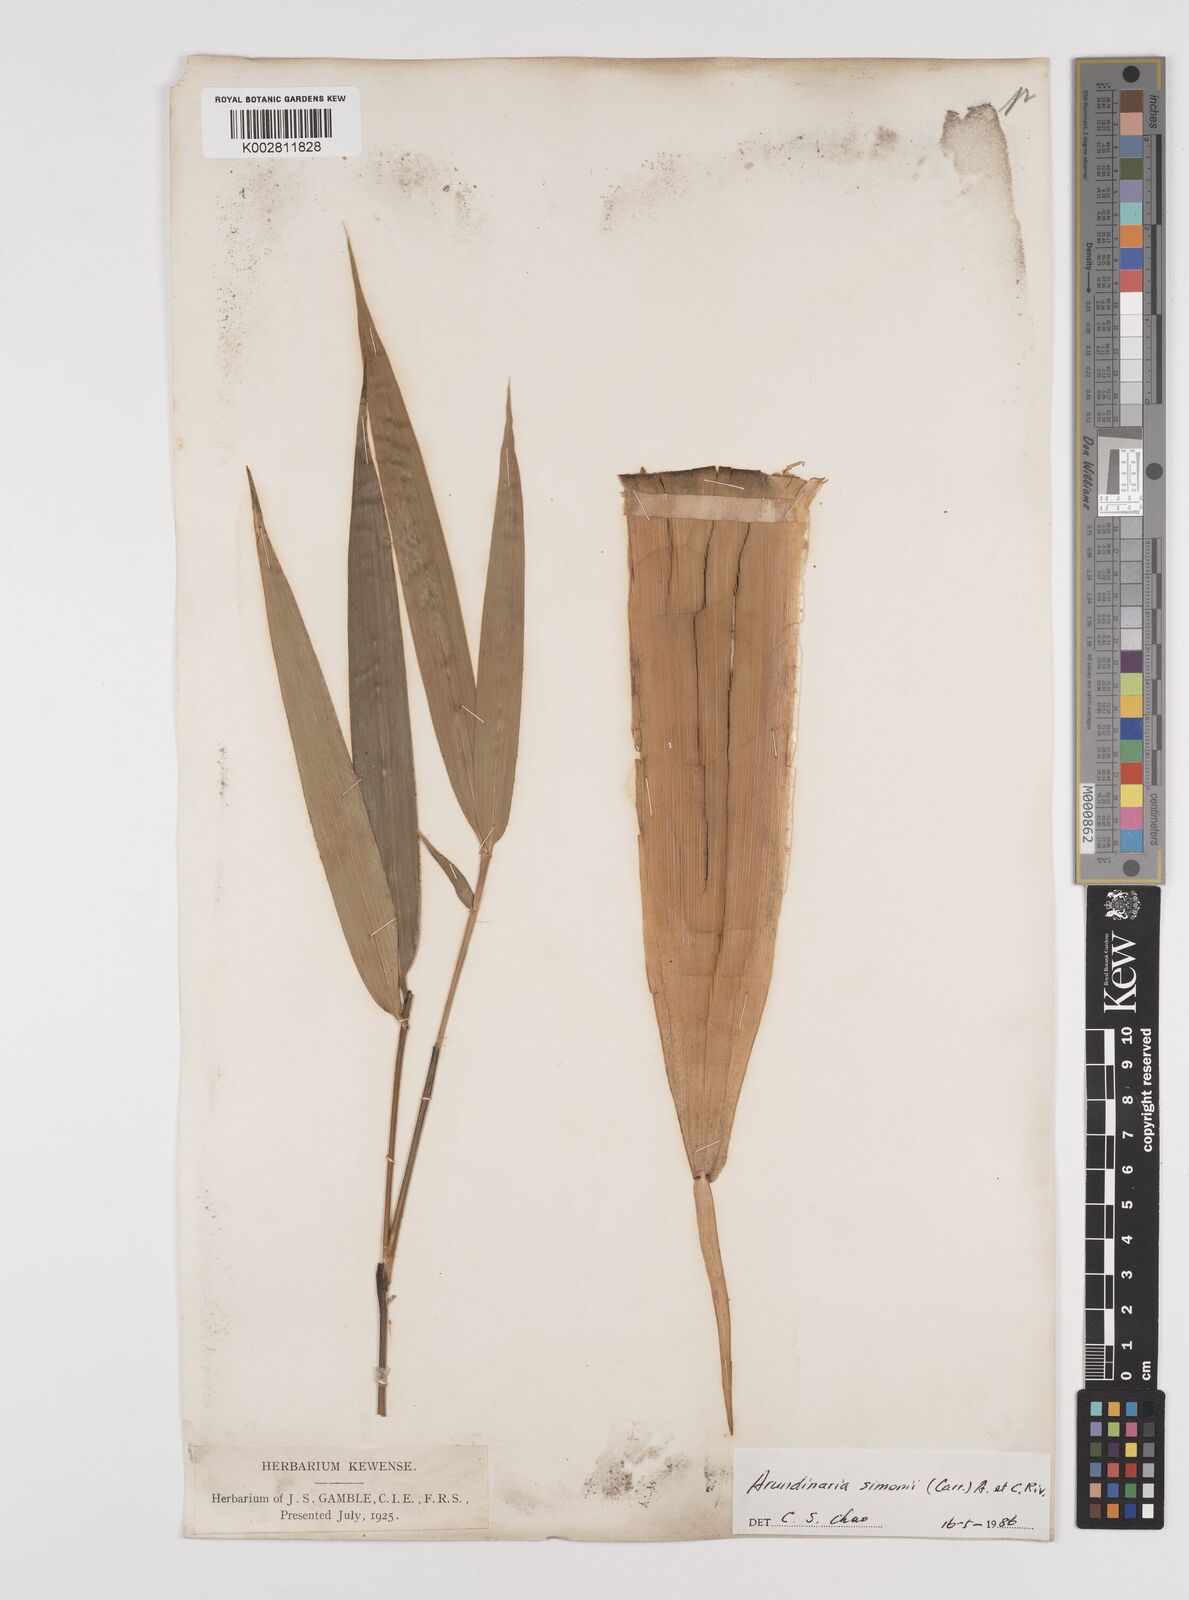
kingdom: Plantae
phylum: Tracheophyta
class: Liliopsida
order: Poales
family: Poaceae
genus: Pleioblastus
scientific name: Pleioblastus simonii
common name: Simon bamboo
